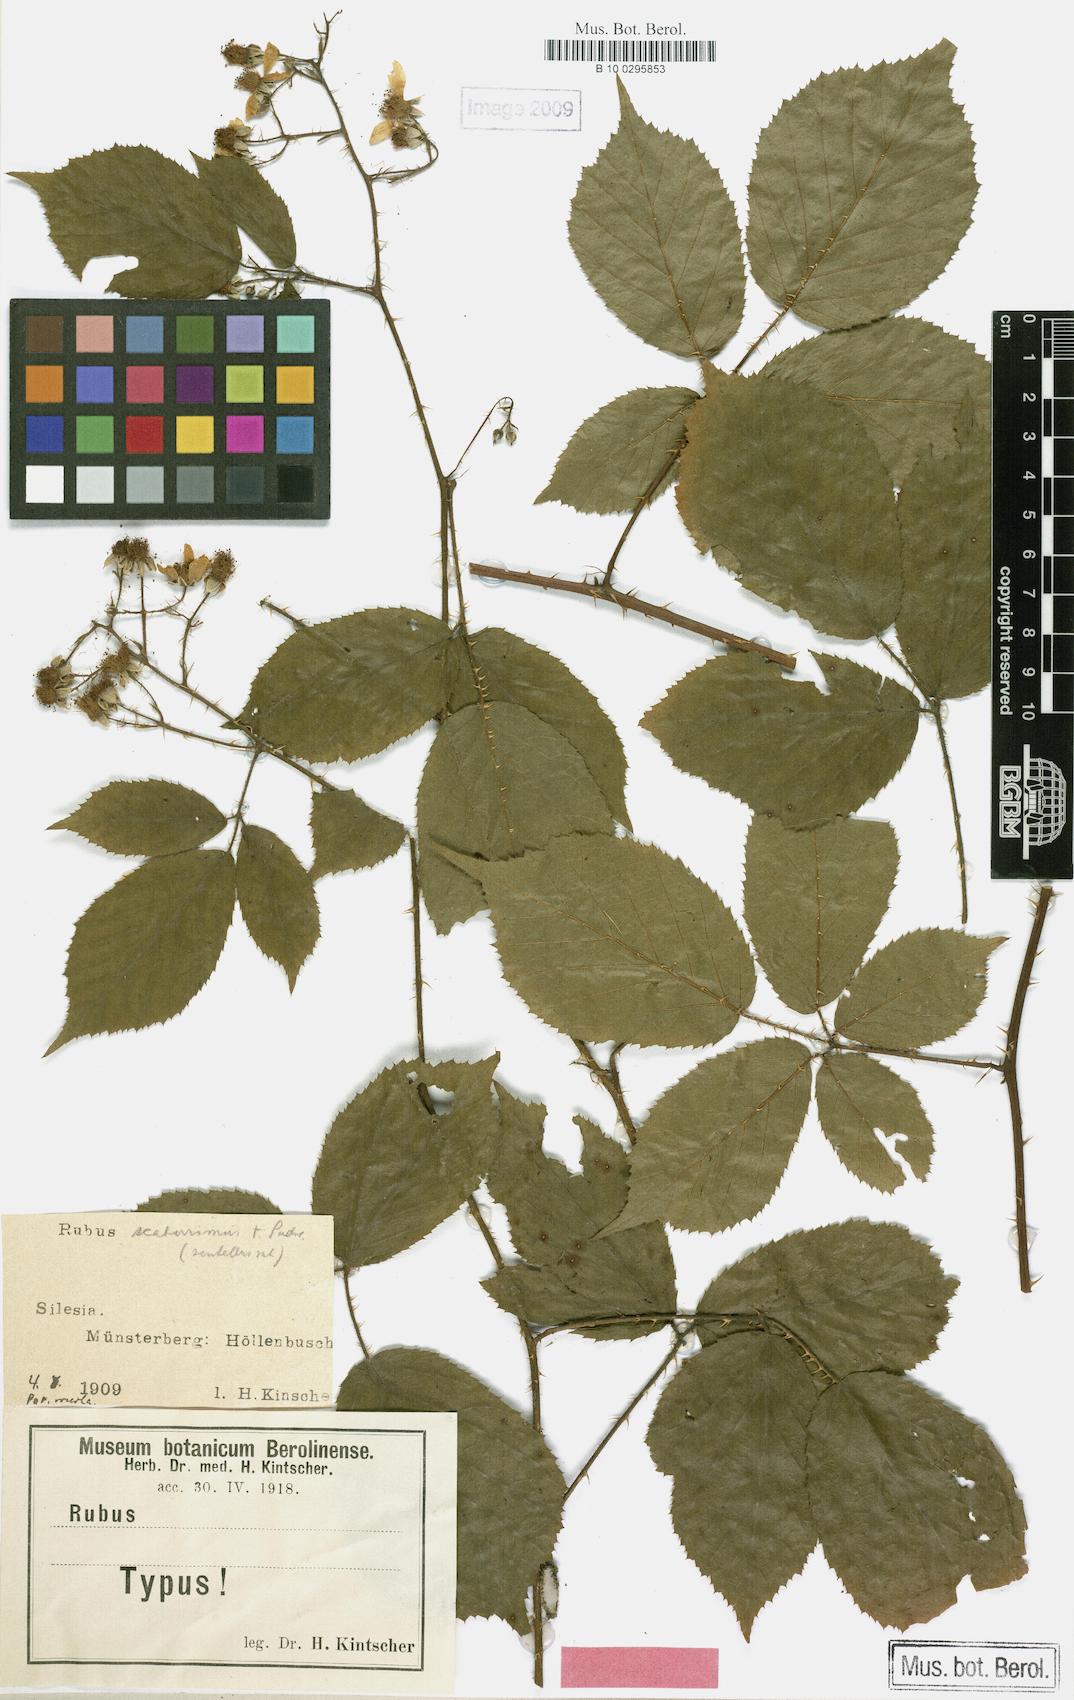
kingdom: Plantae
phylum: Tracheophyta
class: Magnoliopsida
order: Rosales
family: Rosaceae
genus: Rubus
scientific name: Rubus sentellus
